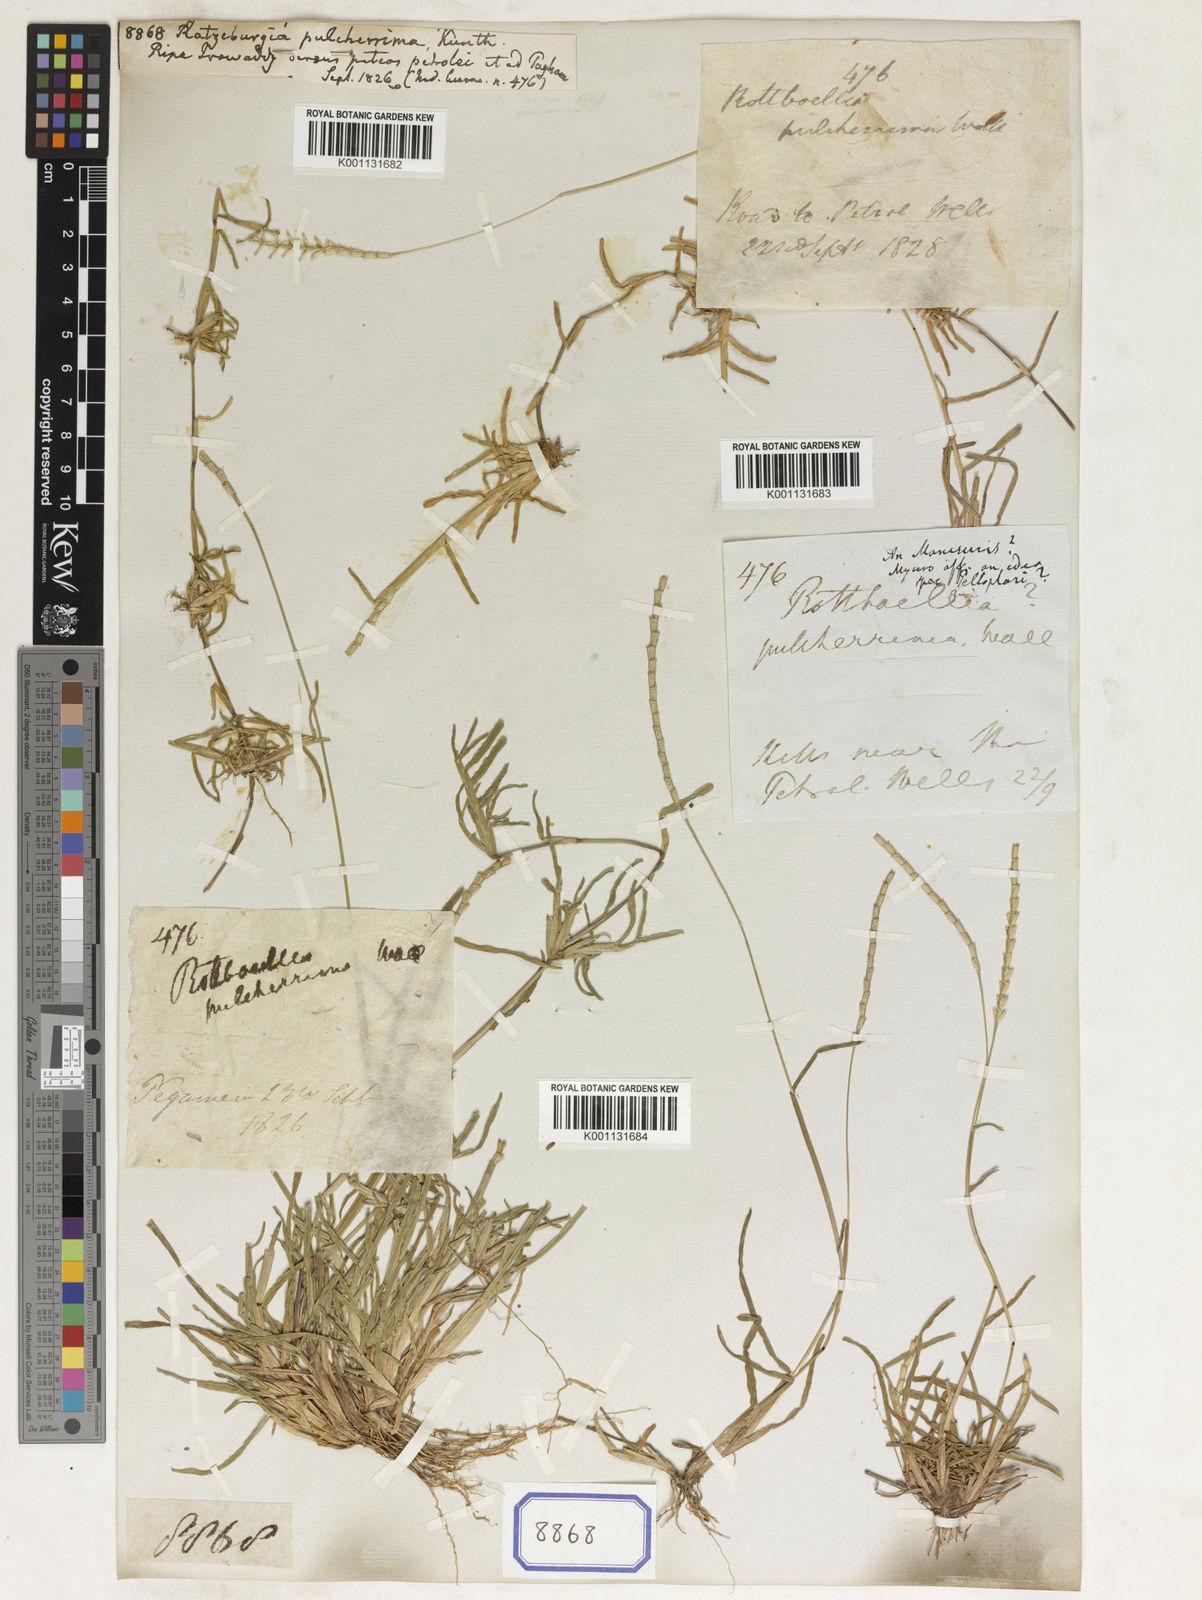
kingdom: Plantae
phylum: Tracheophyta
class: Liliopsida
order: Poales
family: Poaceae
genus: Ratzeburgia
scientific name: Ratzeburgia pulcherrima
